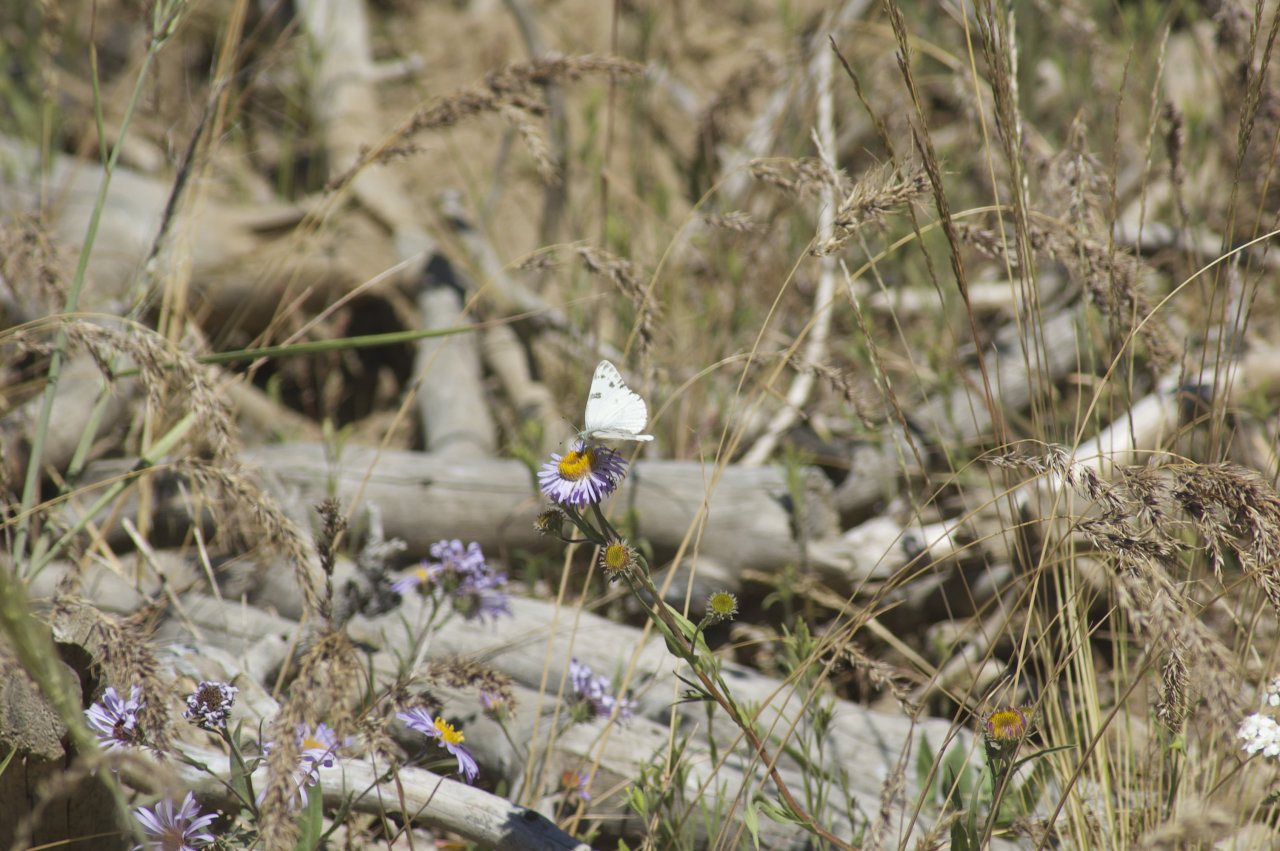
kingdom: Animalia
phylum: Arthropoda
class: Insecta
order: Lepidoptera
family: Pieridae
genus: Pontia
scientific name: Pontia occidentalis
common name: Western White
